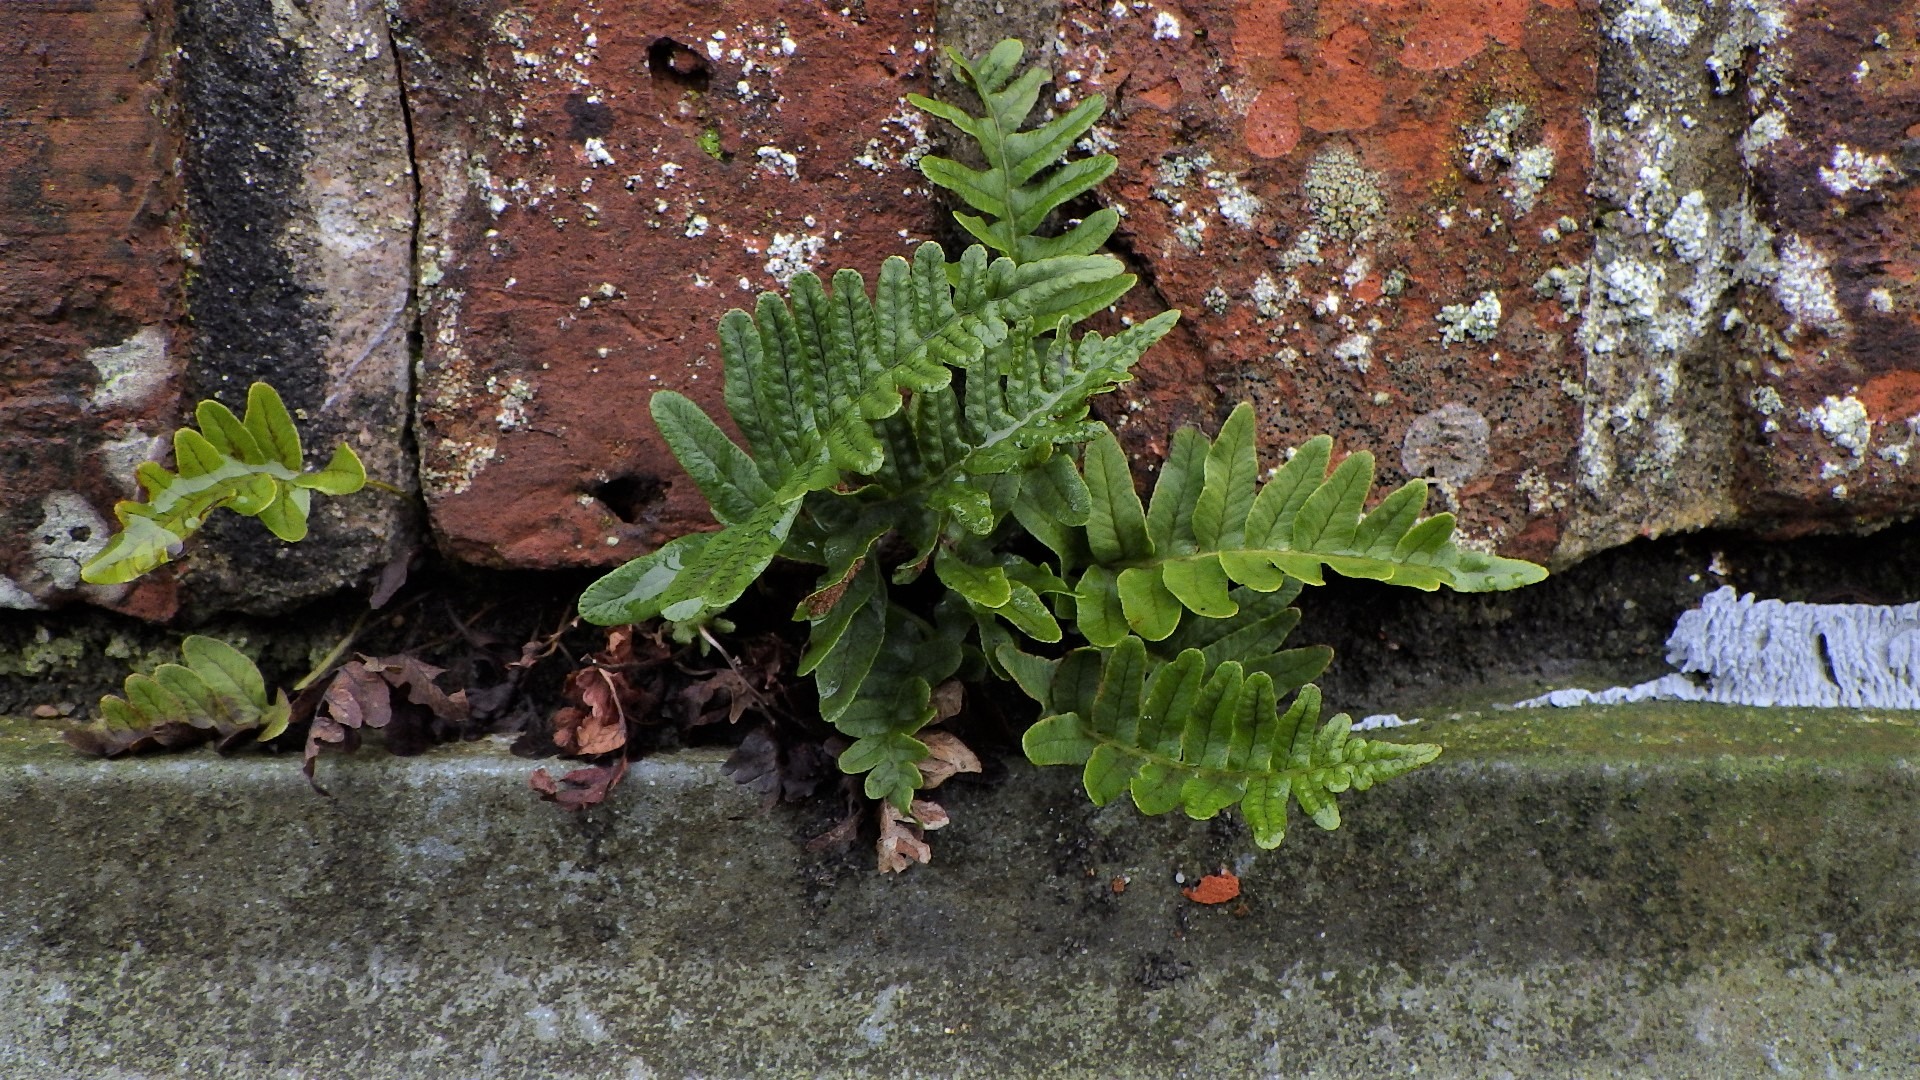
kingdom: Plantae
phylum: Tracheophyta
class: Polypodiopsida
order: Polypodiales
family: Polypodiaceae
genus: Polypodium
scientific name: Polypodium vulgare
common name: Almindelig engelsød
